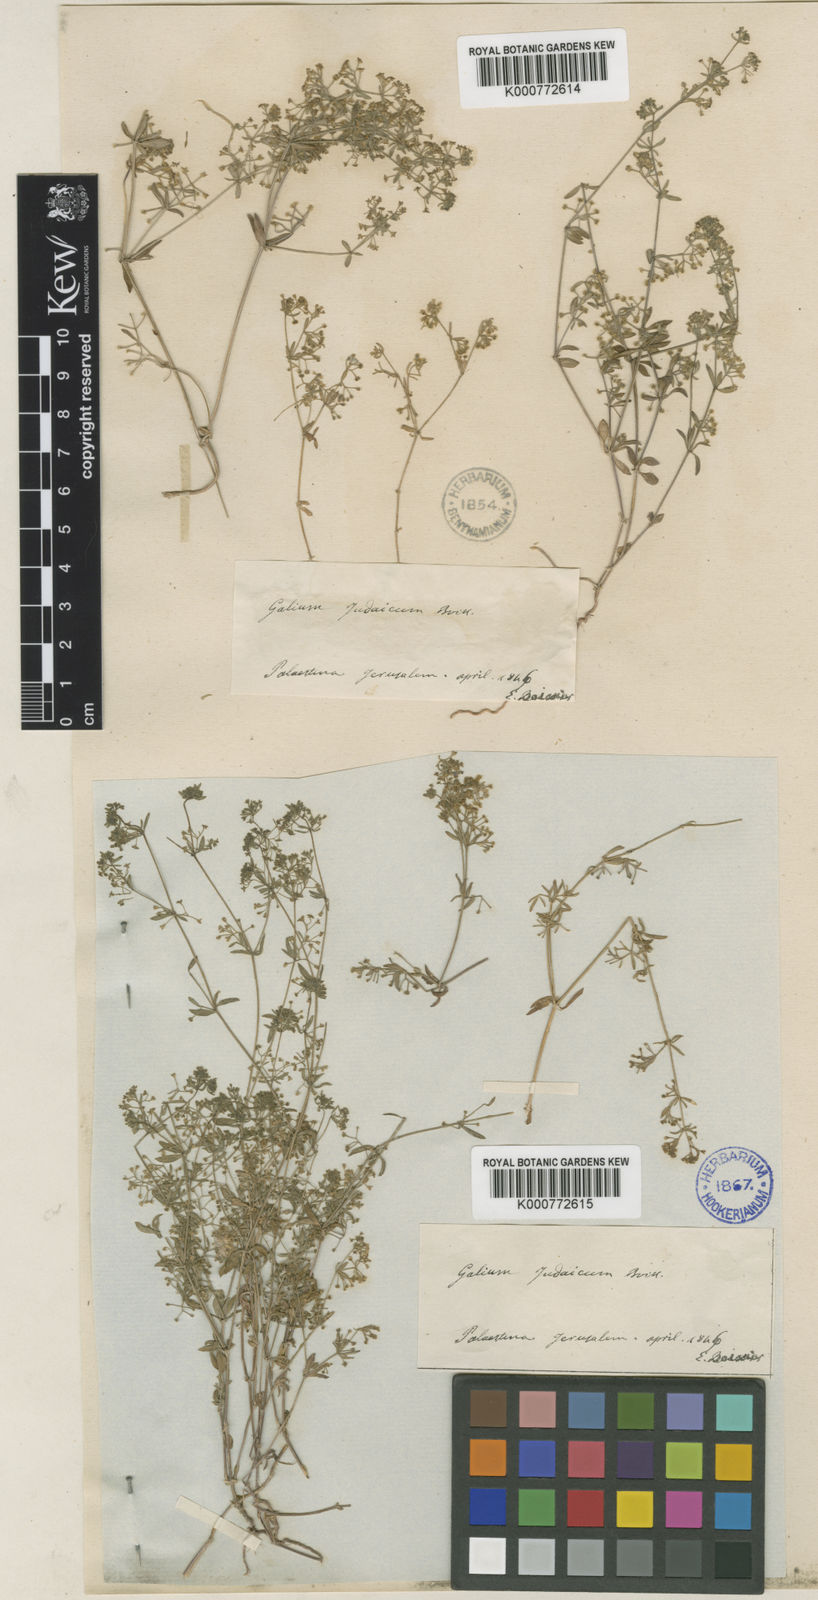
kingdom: Plantae
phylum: Tracheophyta
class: Magnoliopsida
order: Gentianales
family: Rubiaceae
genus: Galium
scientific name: Galium judaicum
